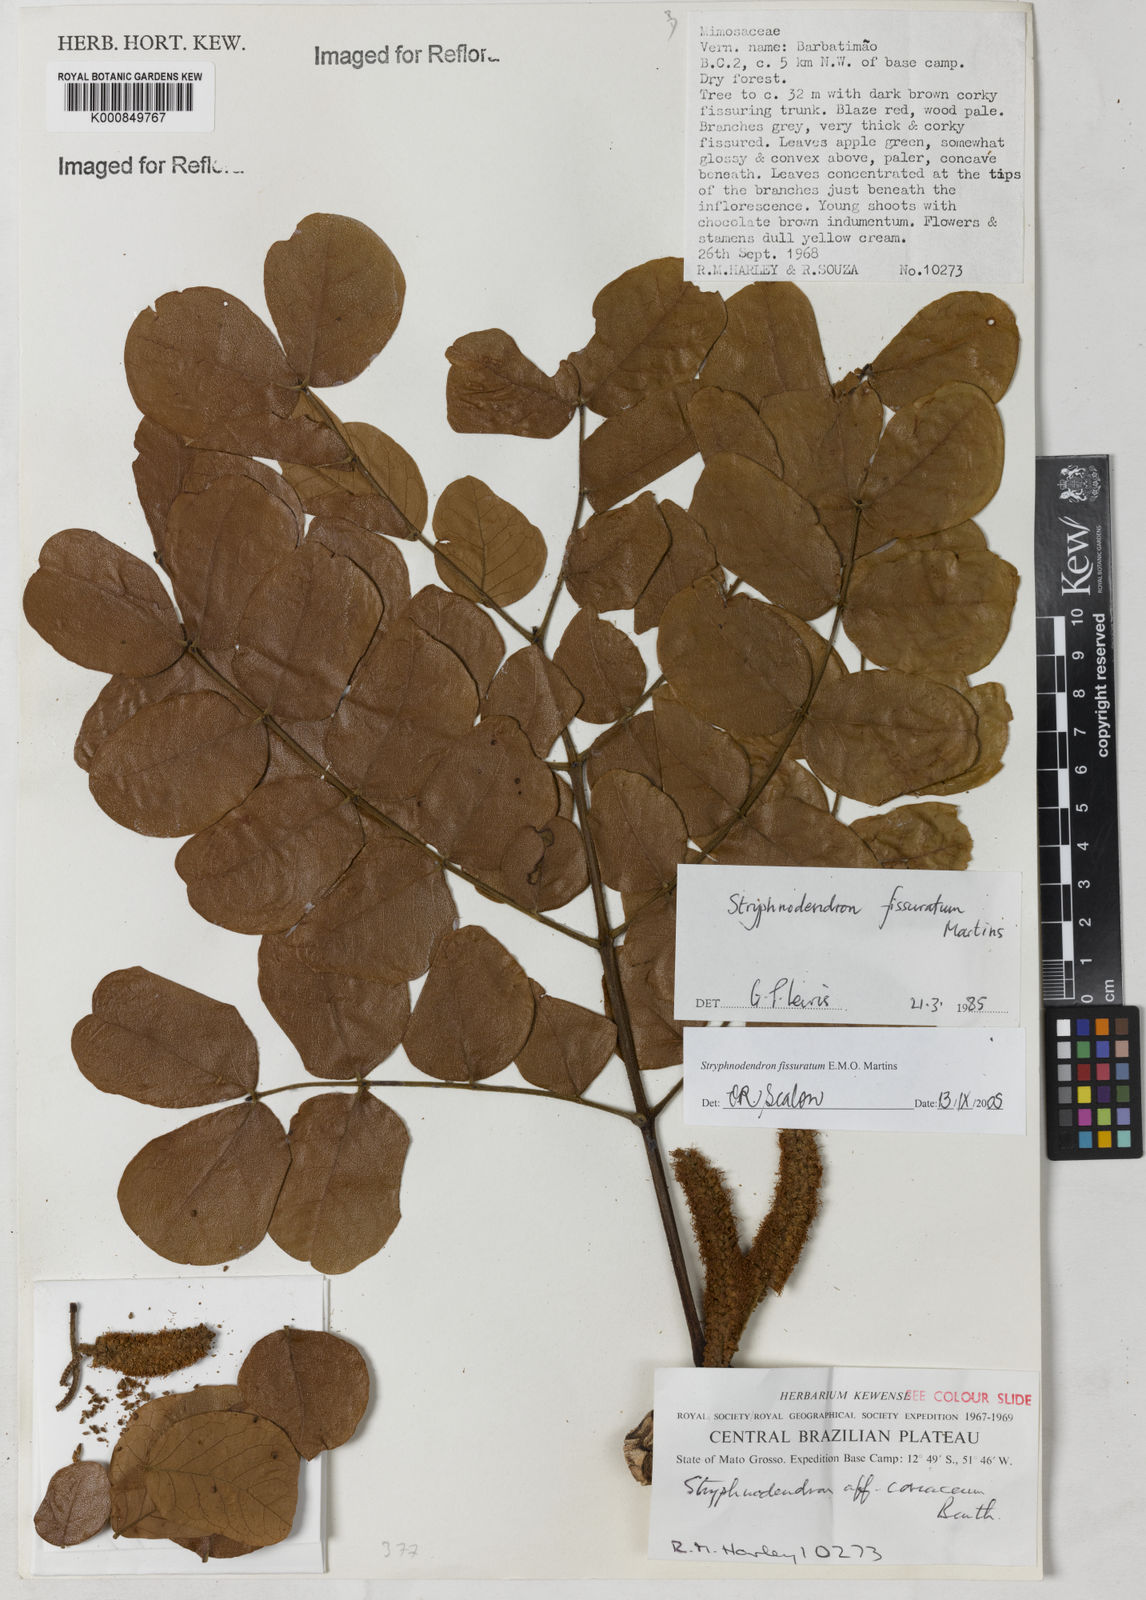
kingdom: Plantae
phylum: Tracheophyta
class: Magnoliopsida
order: Fabales
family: Fabaceae
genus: Stryphnodendron
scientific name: Stryphnodendron fissuratum
